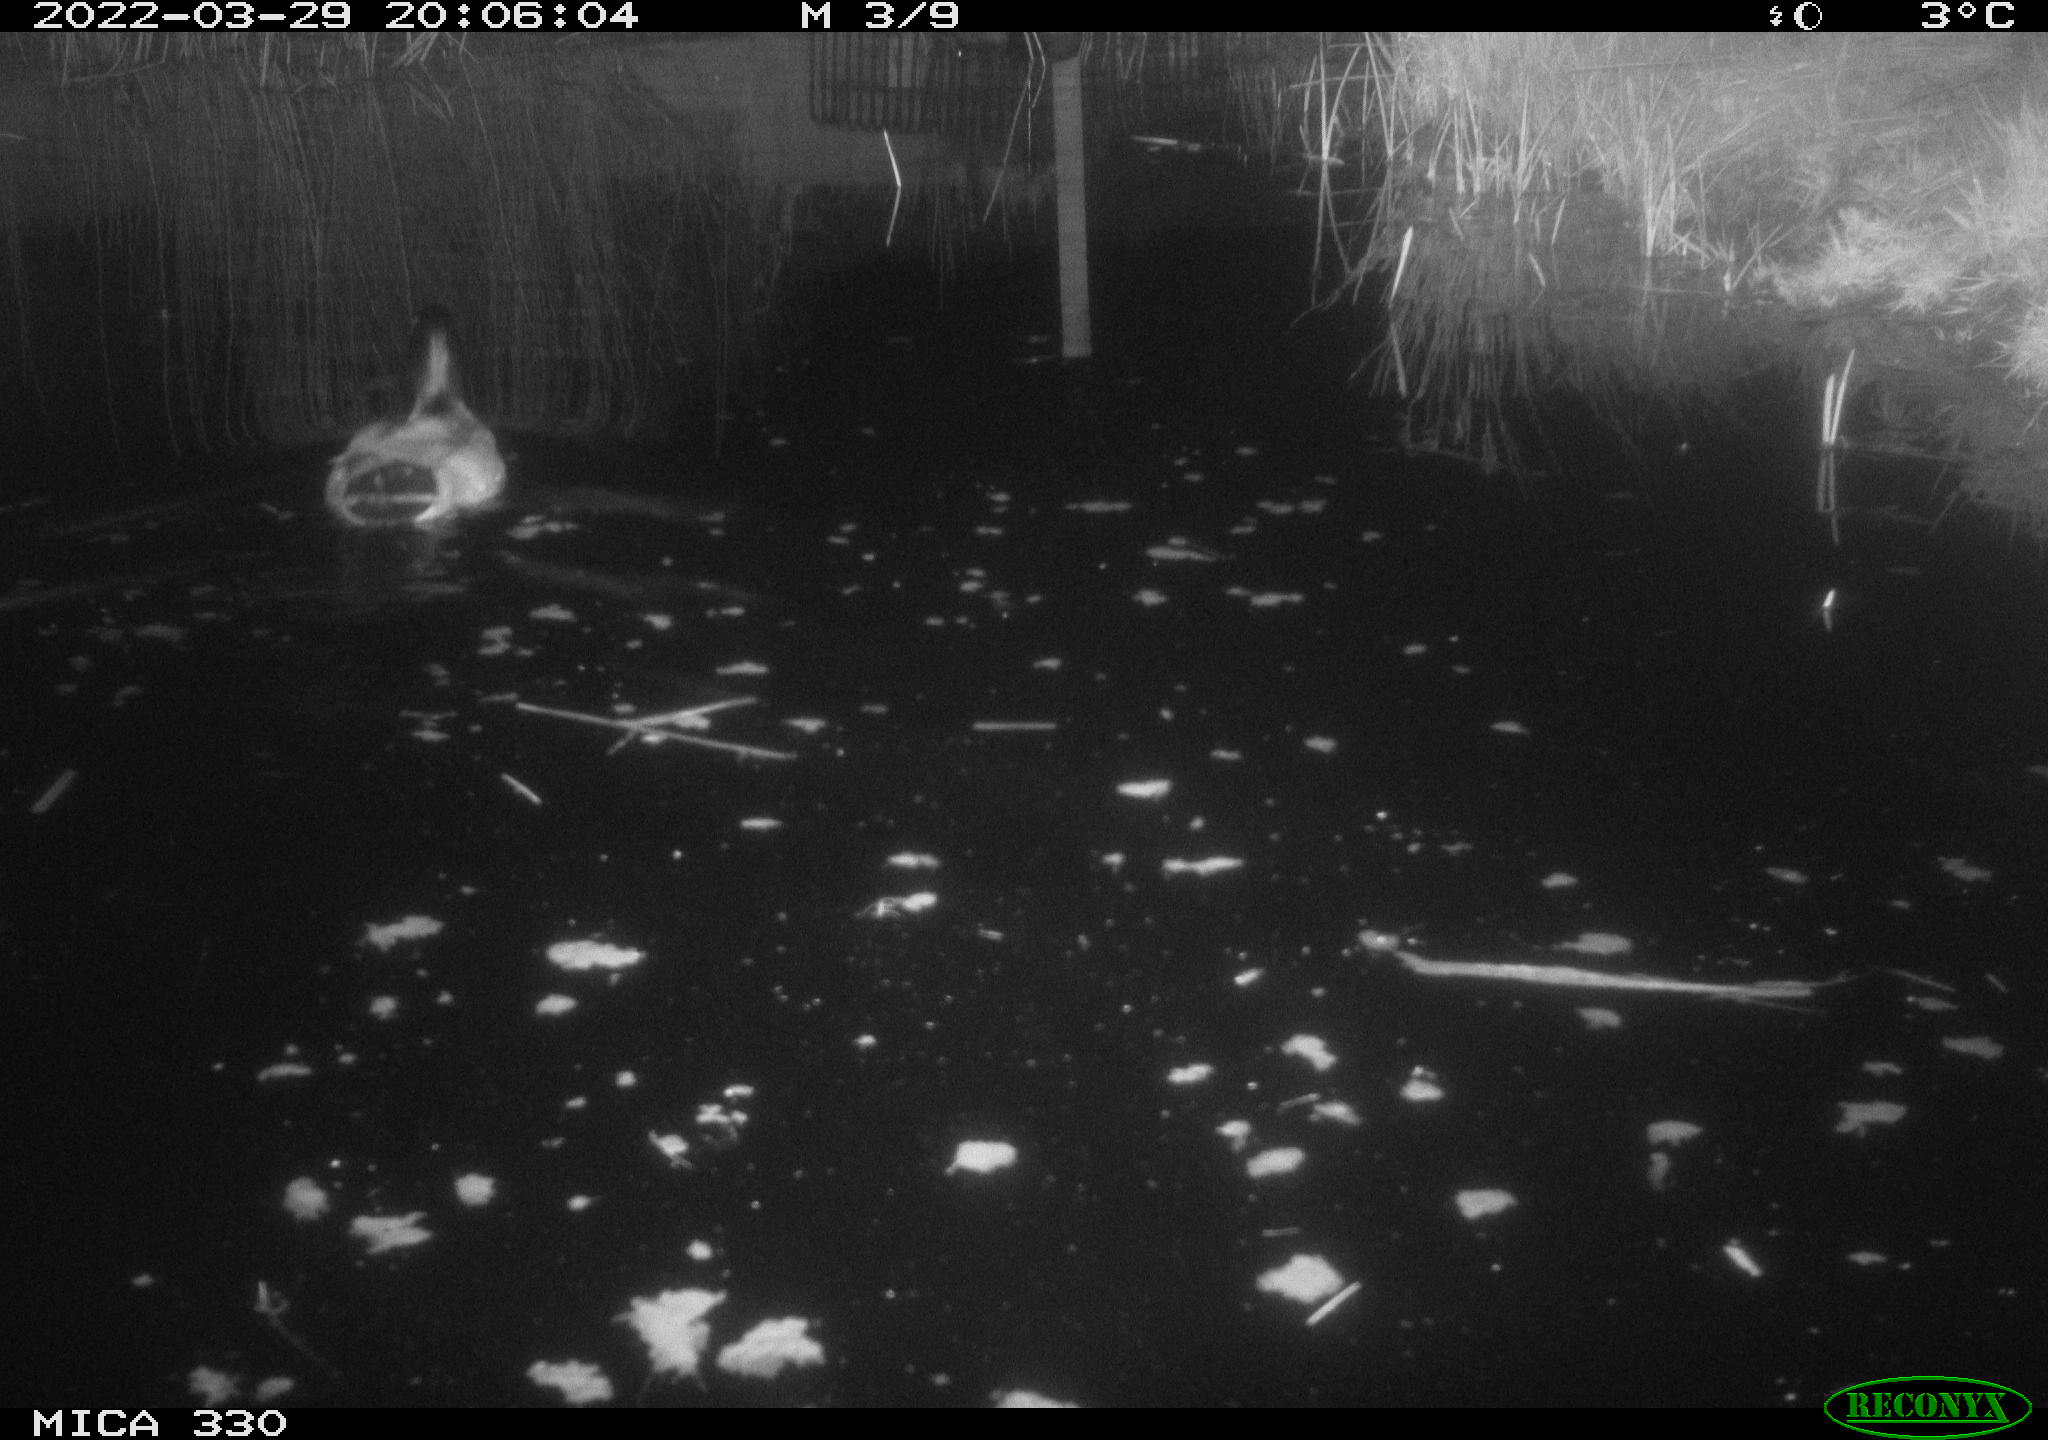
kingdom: Animalia
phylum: Chordata
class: Aves
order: Anseriformes
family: Anatidae
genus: Anas
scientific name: Anas platyrhynchos
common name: Mallard
